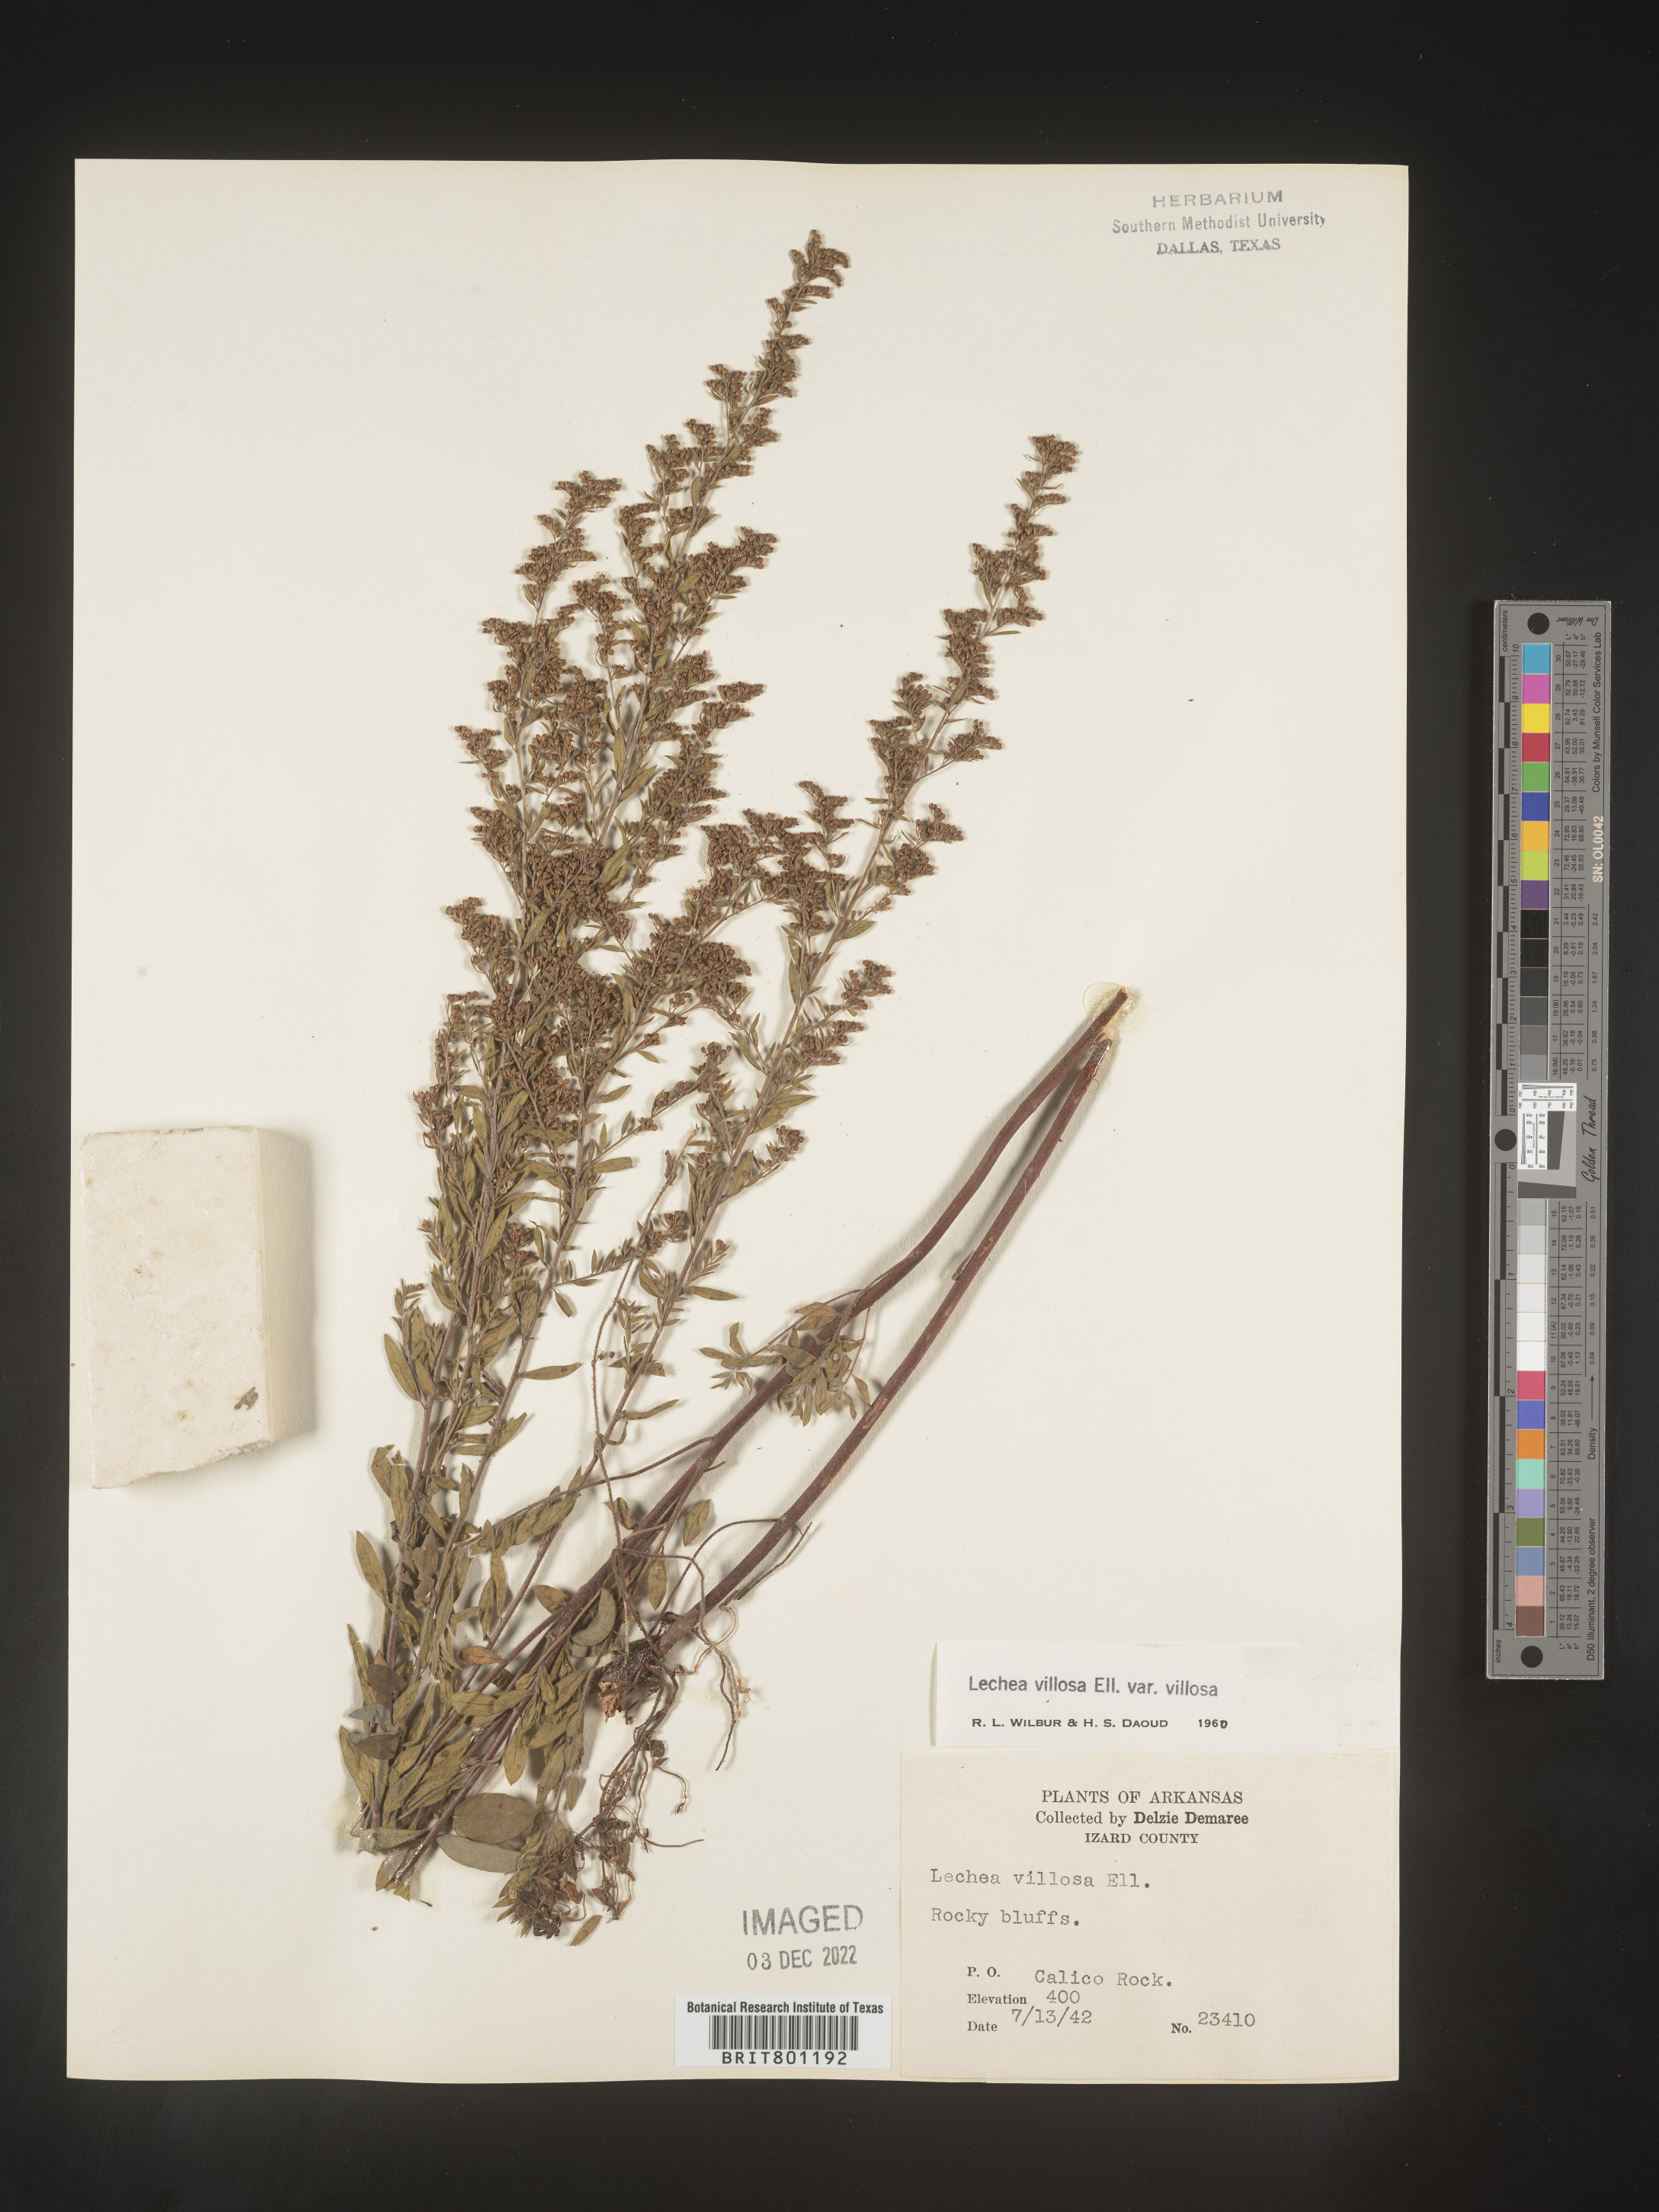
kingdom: Plantae
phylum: Tracheophyta
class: Magnoliopsida
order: Malvales
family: Cistaceae
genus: Lechea
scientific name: Lechea mucronata
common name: Hairy pinweed
